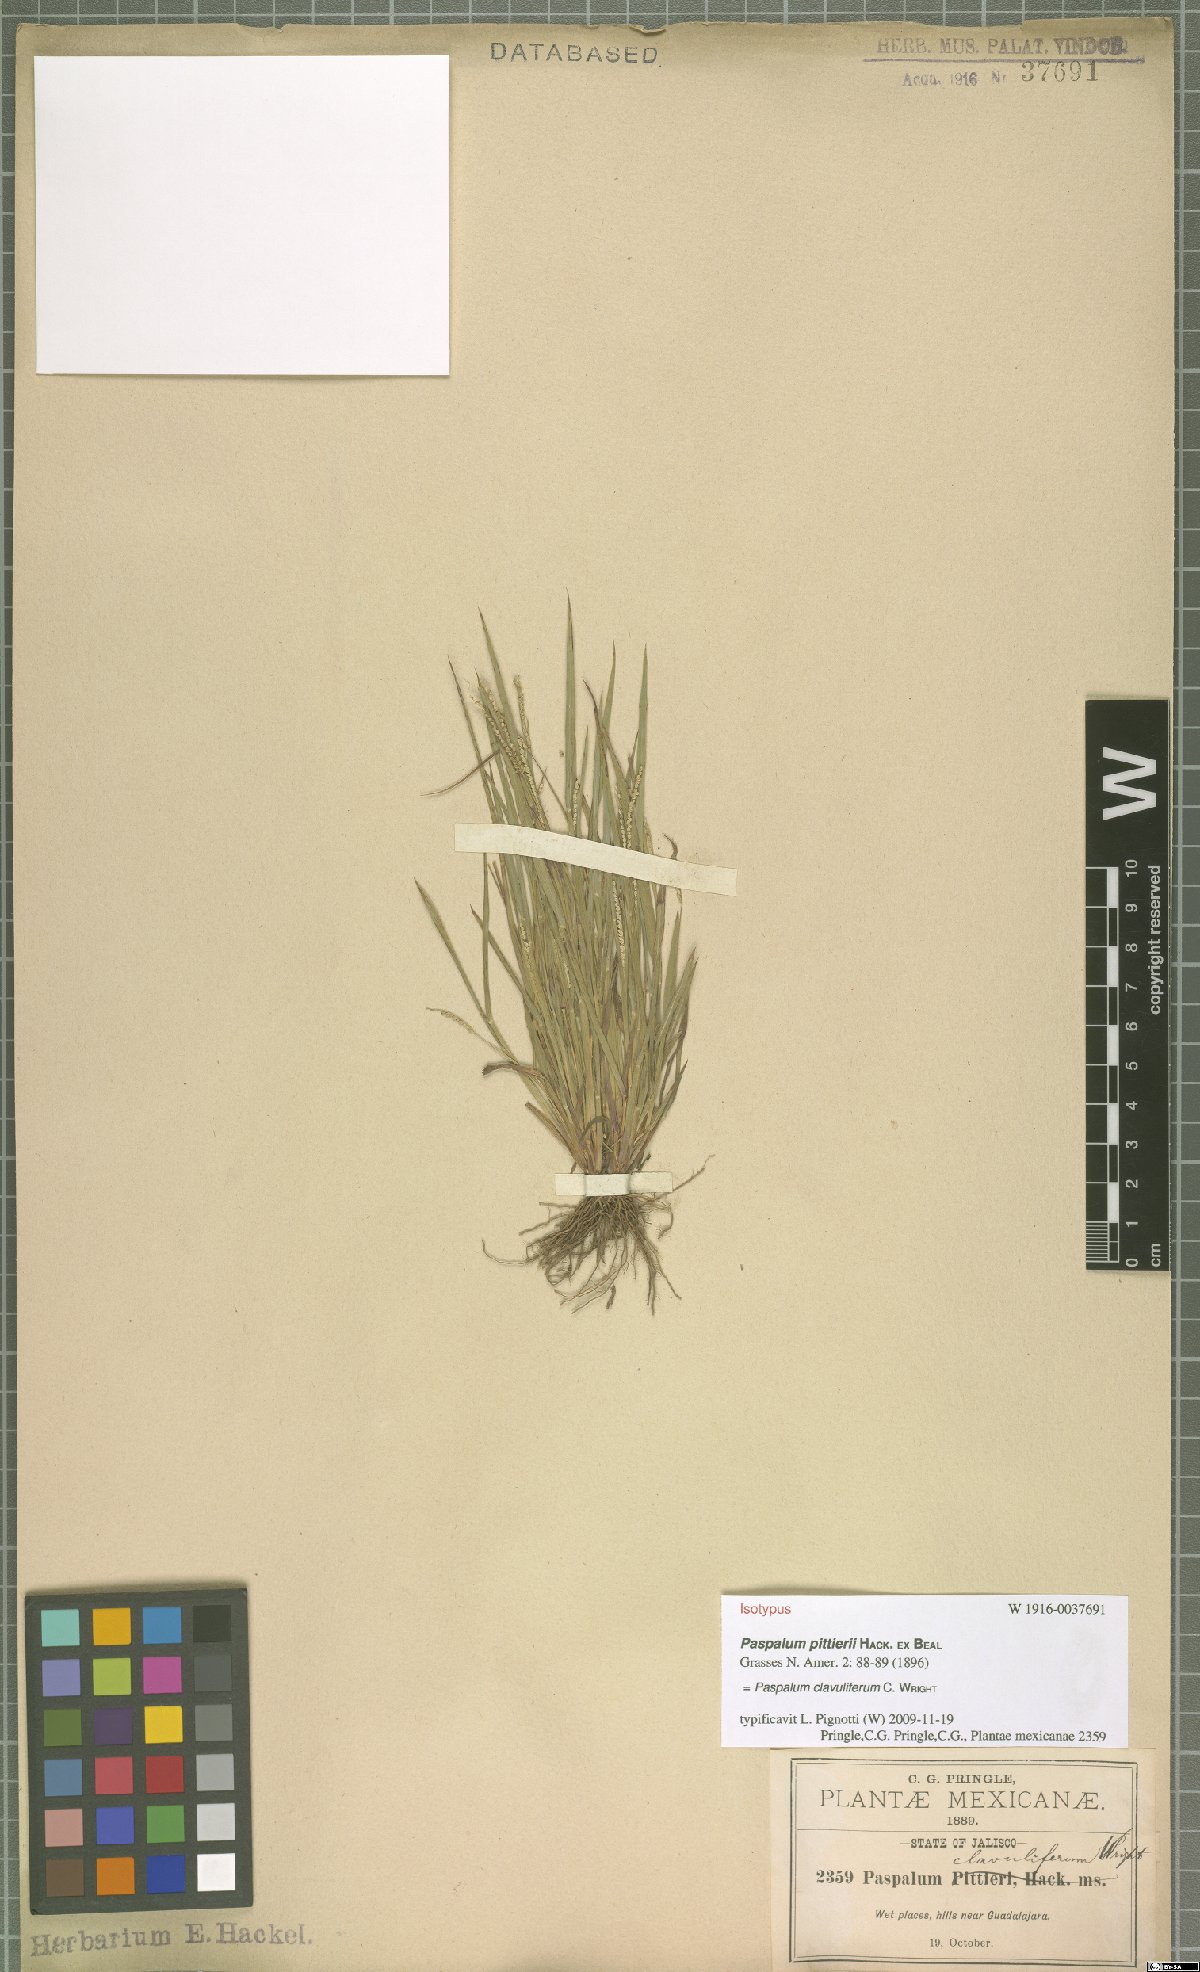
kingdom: Plantae
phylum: Tracheophyta
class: Liliopsida
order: Poales
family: Poaceae
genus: Paspalum
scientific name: Paspalum clavuliferum
